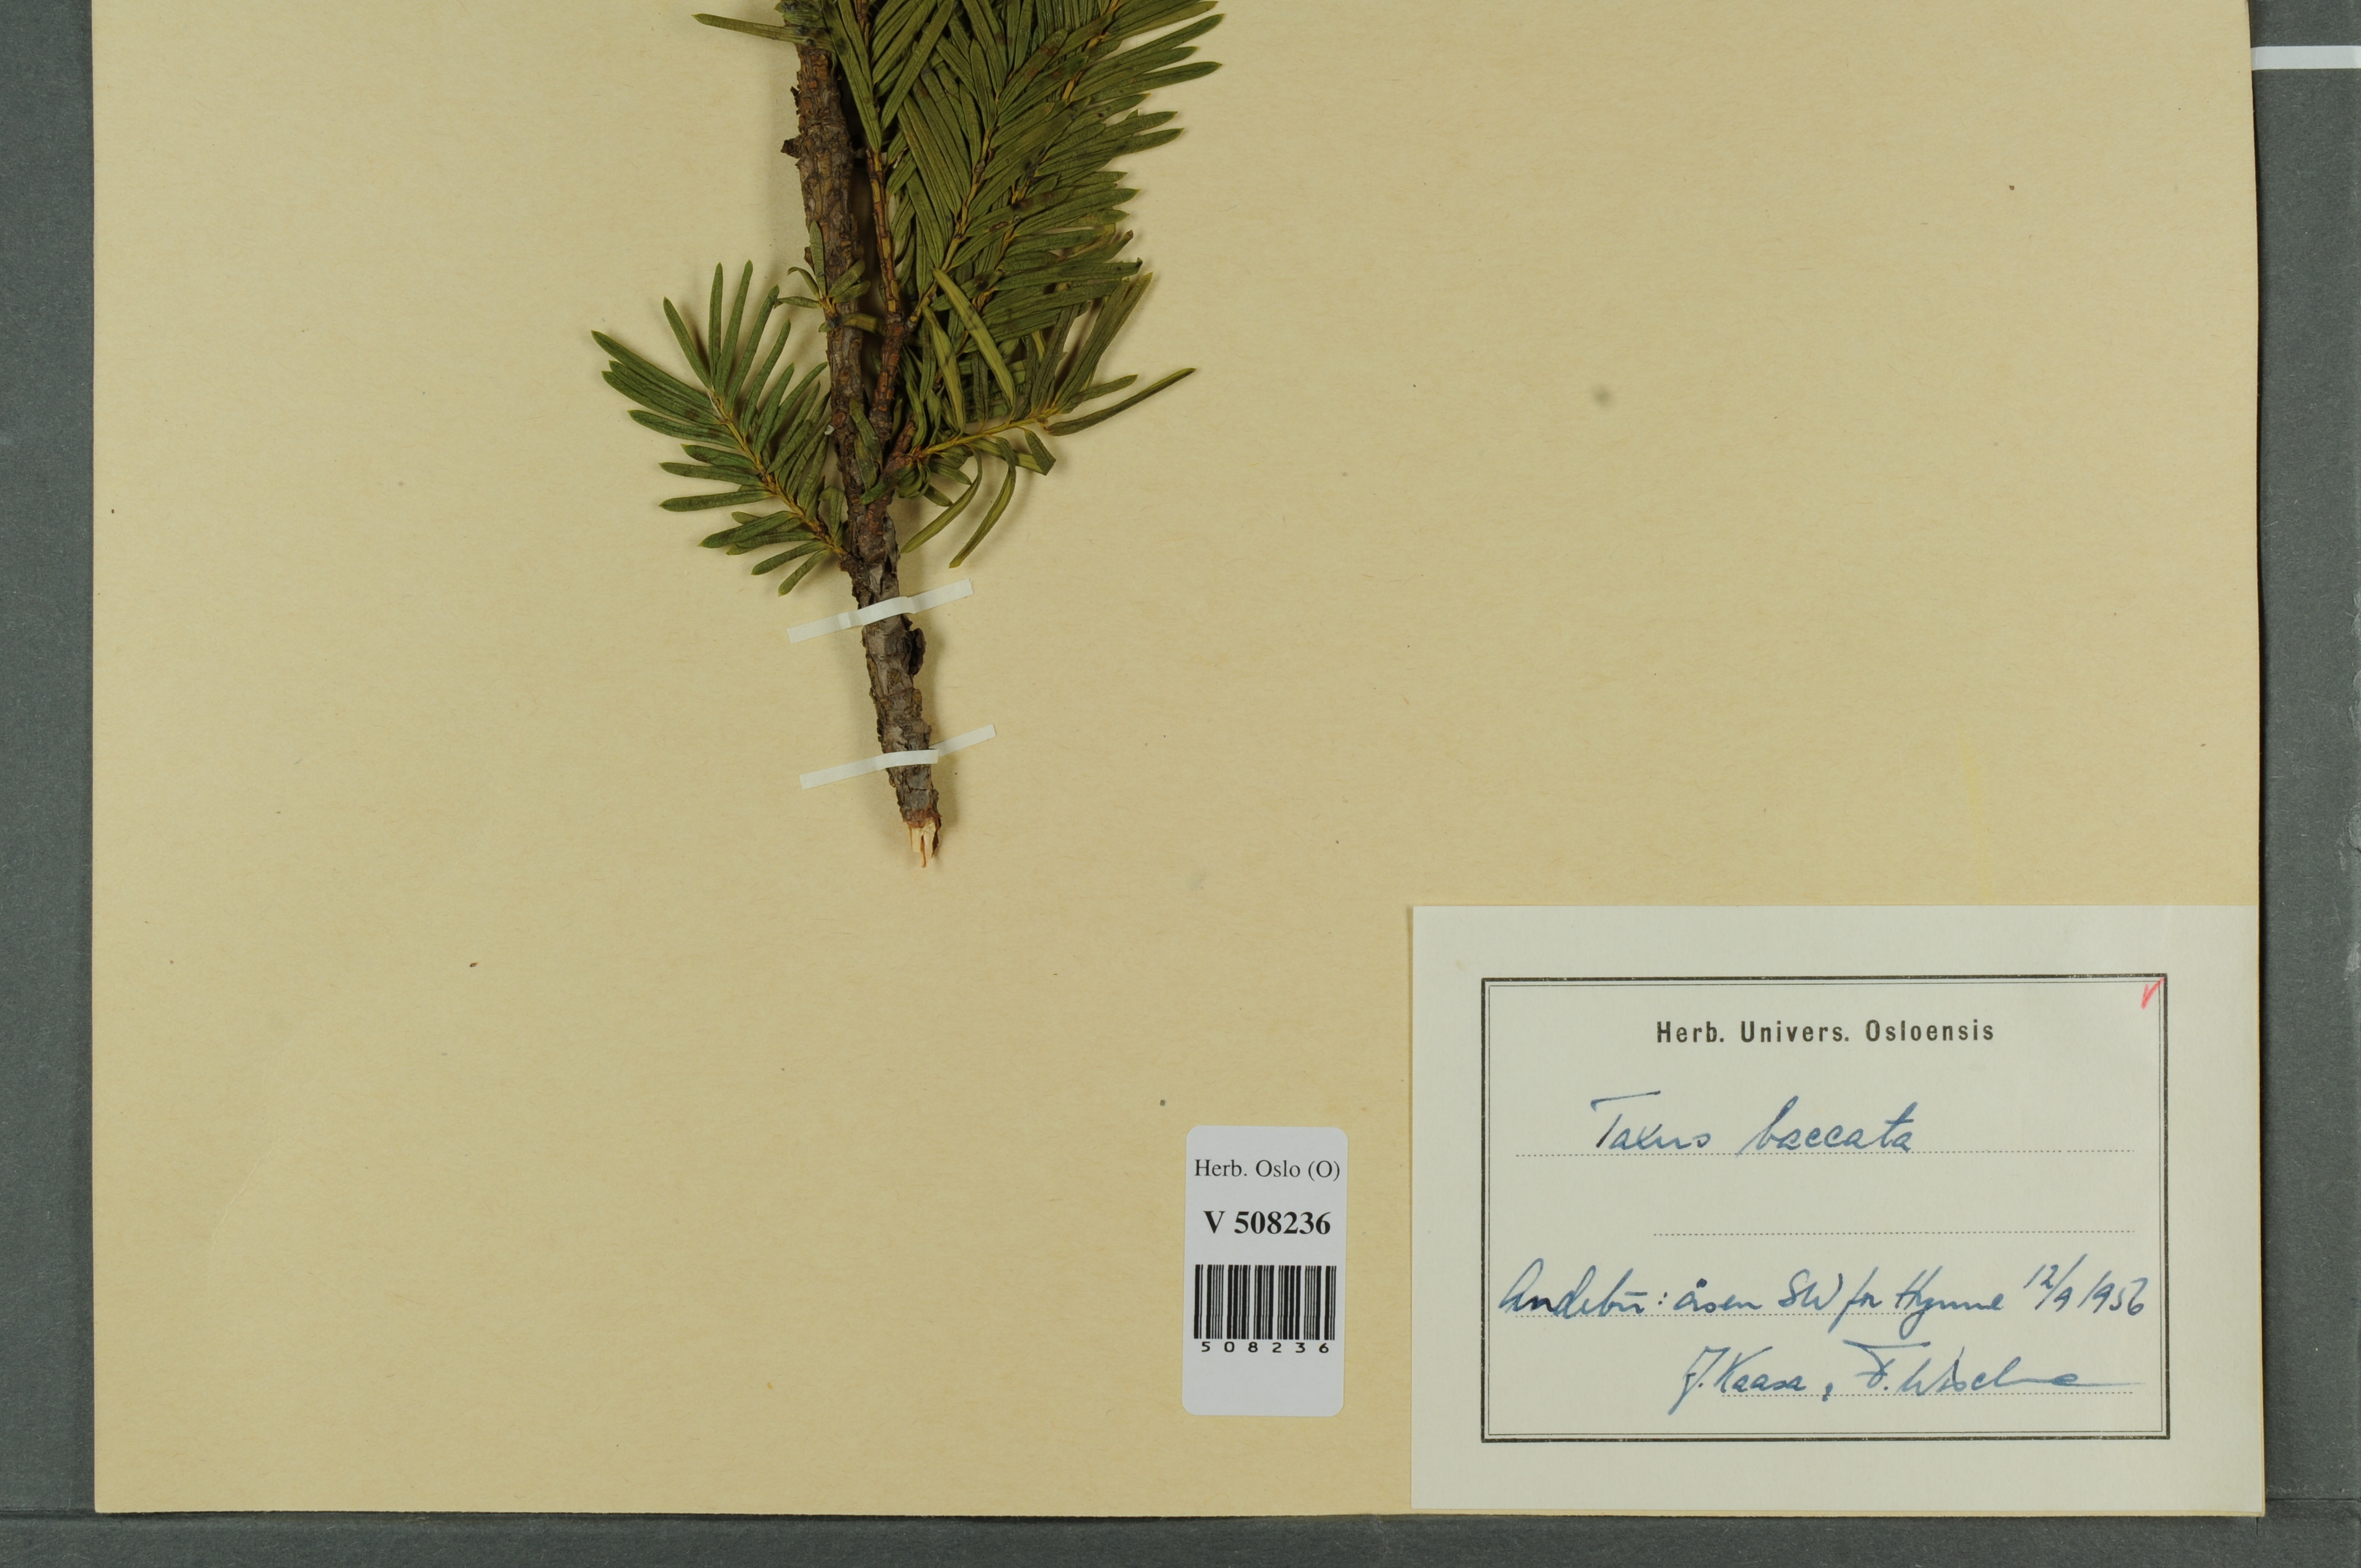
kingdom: Plantae
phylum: Tracheophyta
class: Pinopsida
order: Pinales
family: Taxaceae
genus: Taxus
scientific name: Taxus baccata
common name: Yew
